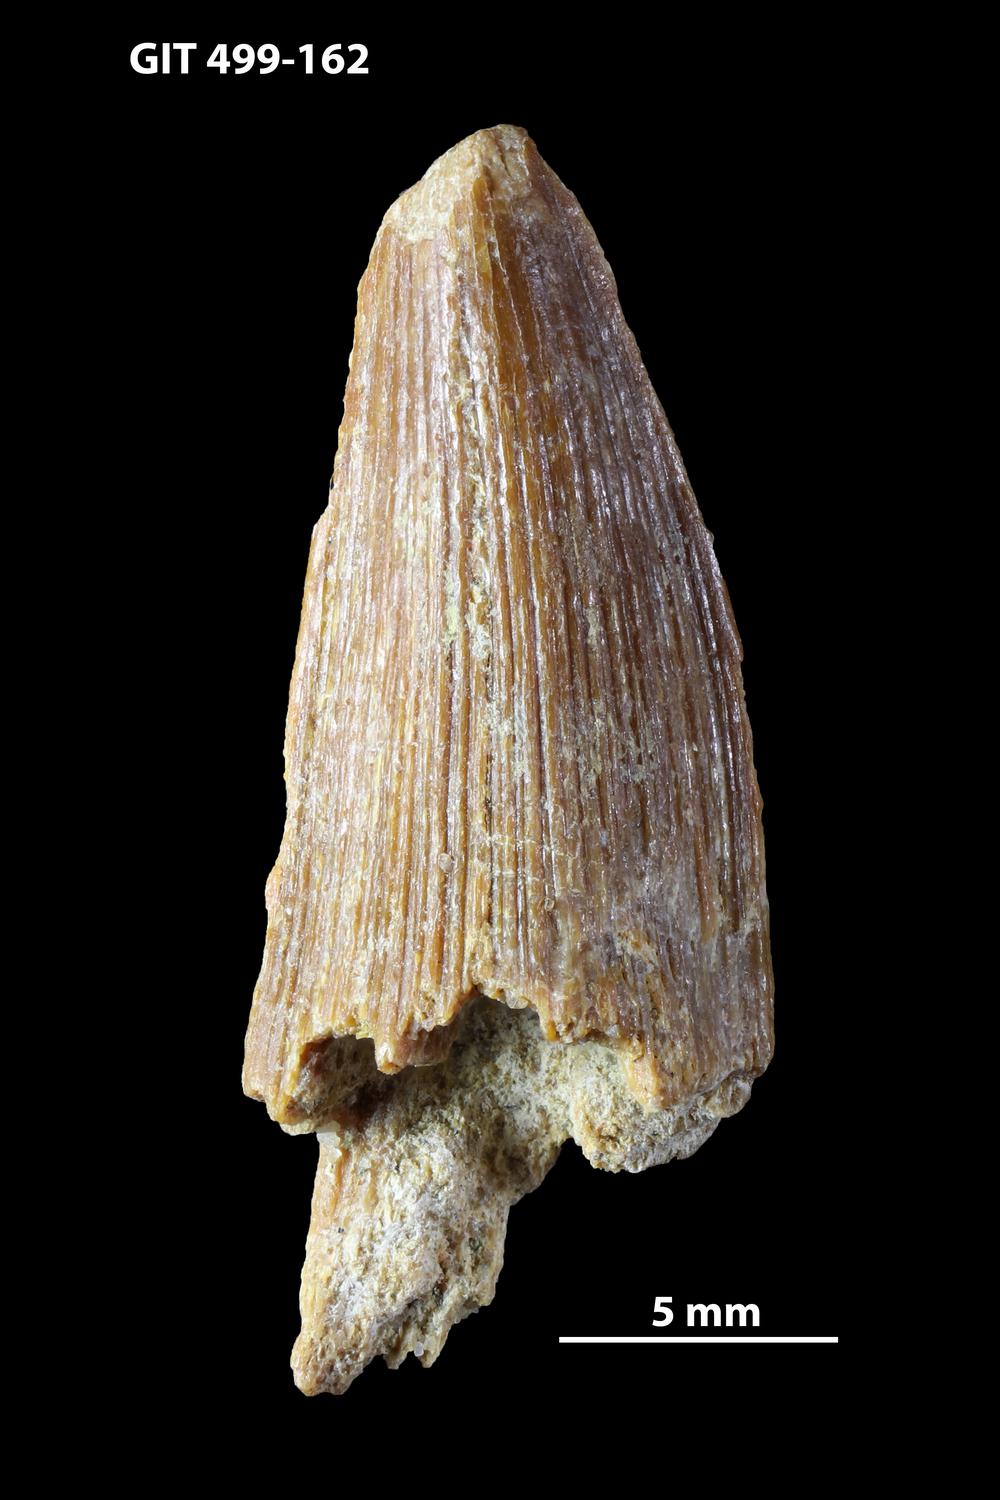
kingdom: Animalia
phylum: Chordata
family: Holoptychiidae
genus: Glyptolepis
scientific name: Glyptolepis
